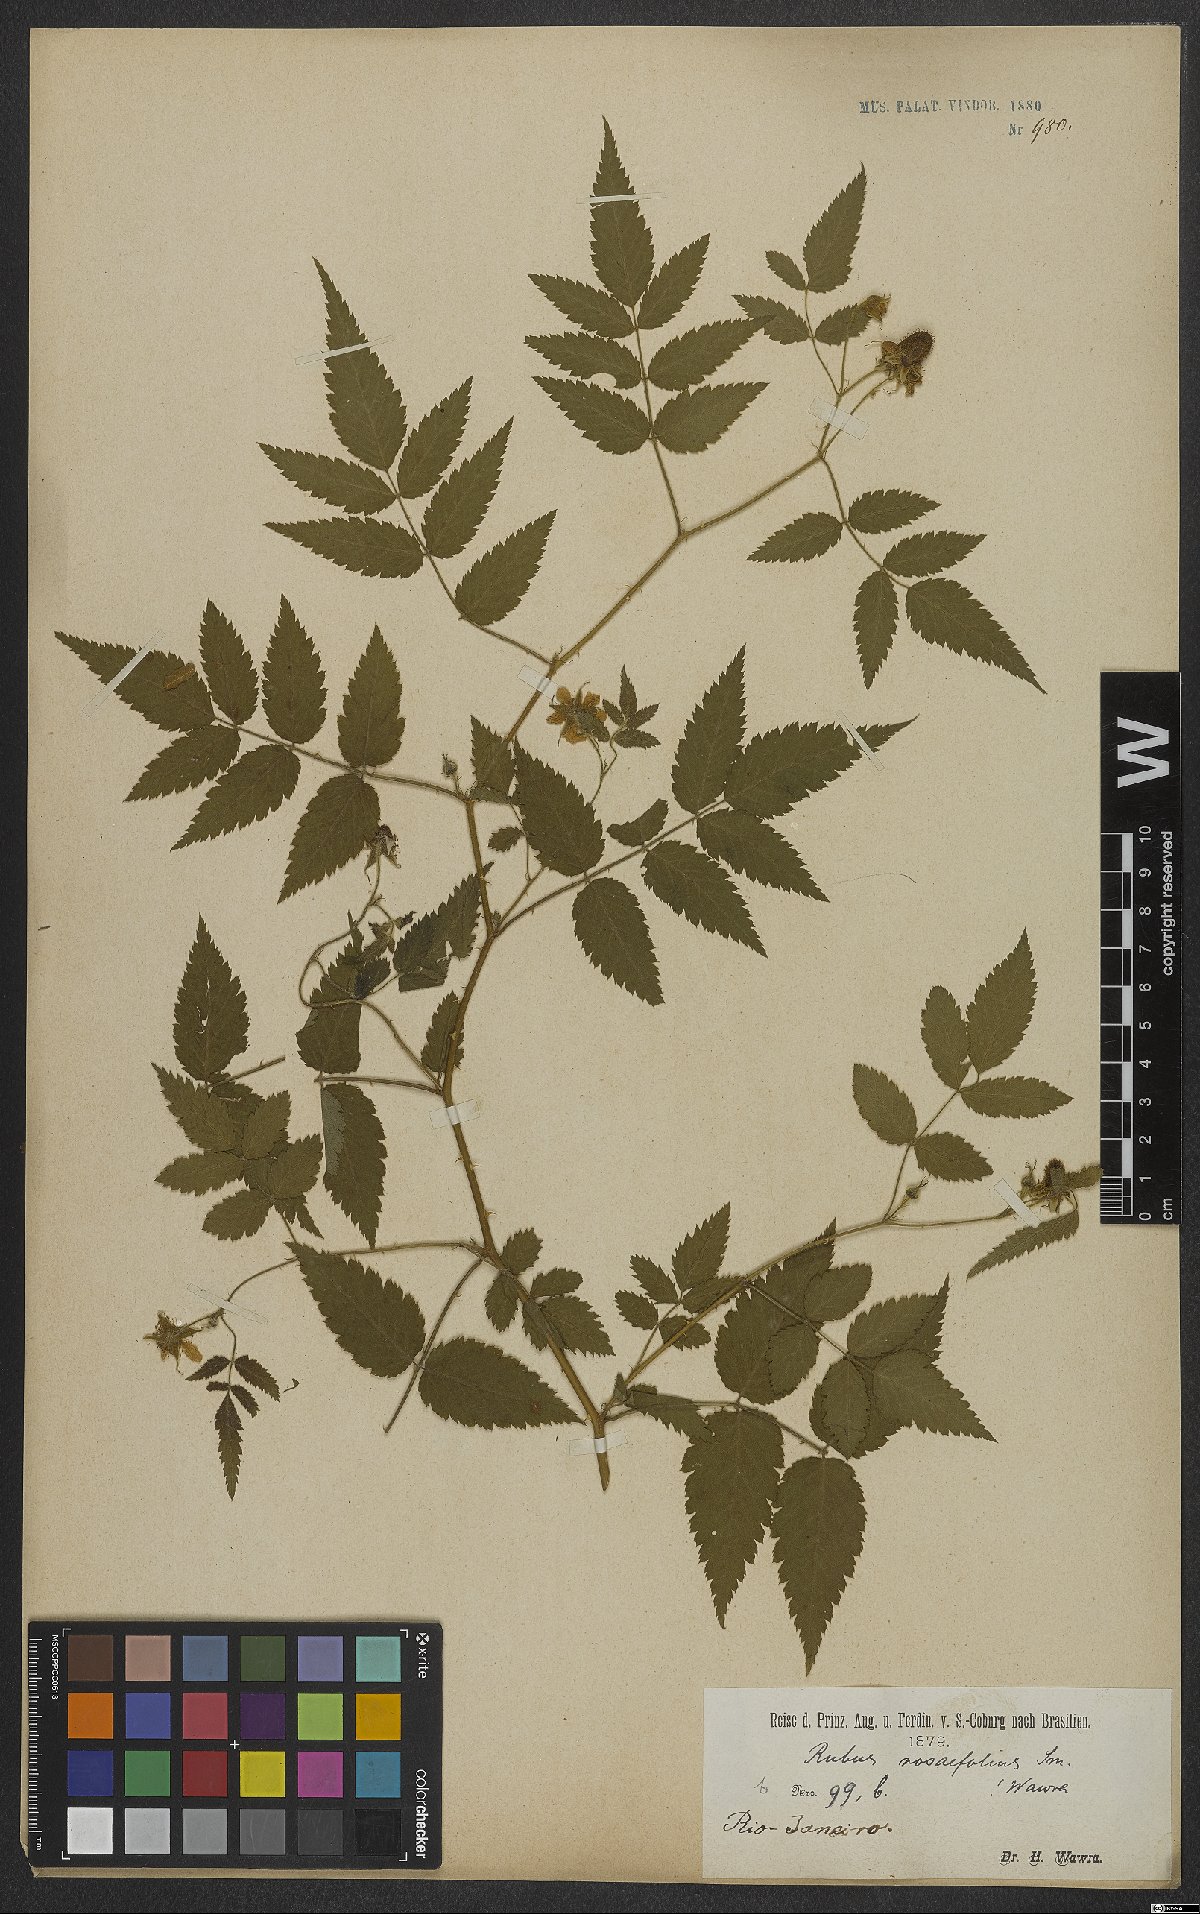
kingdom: Plantae
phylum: Tracheophyta
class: Magnoliopsida
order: Rosales
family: Rosaceae
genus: Prunus
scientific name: Prunus myrtifolia
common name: West indies cherry
